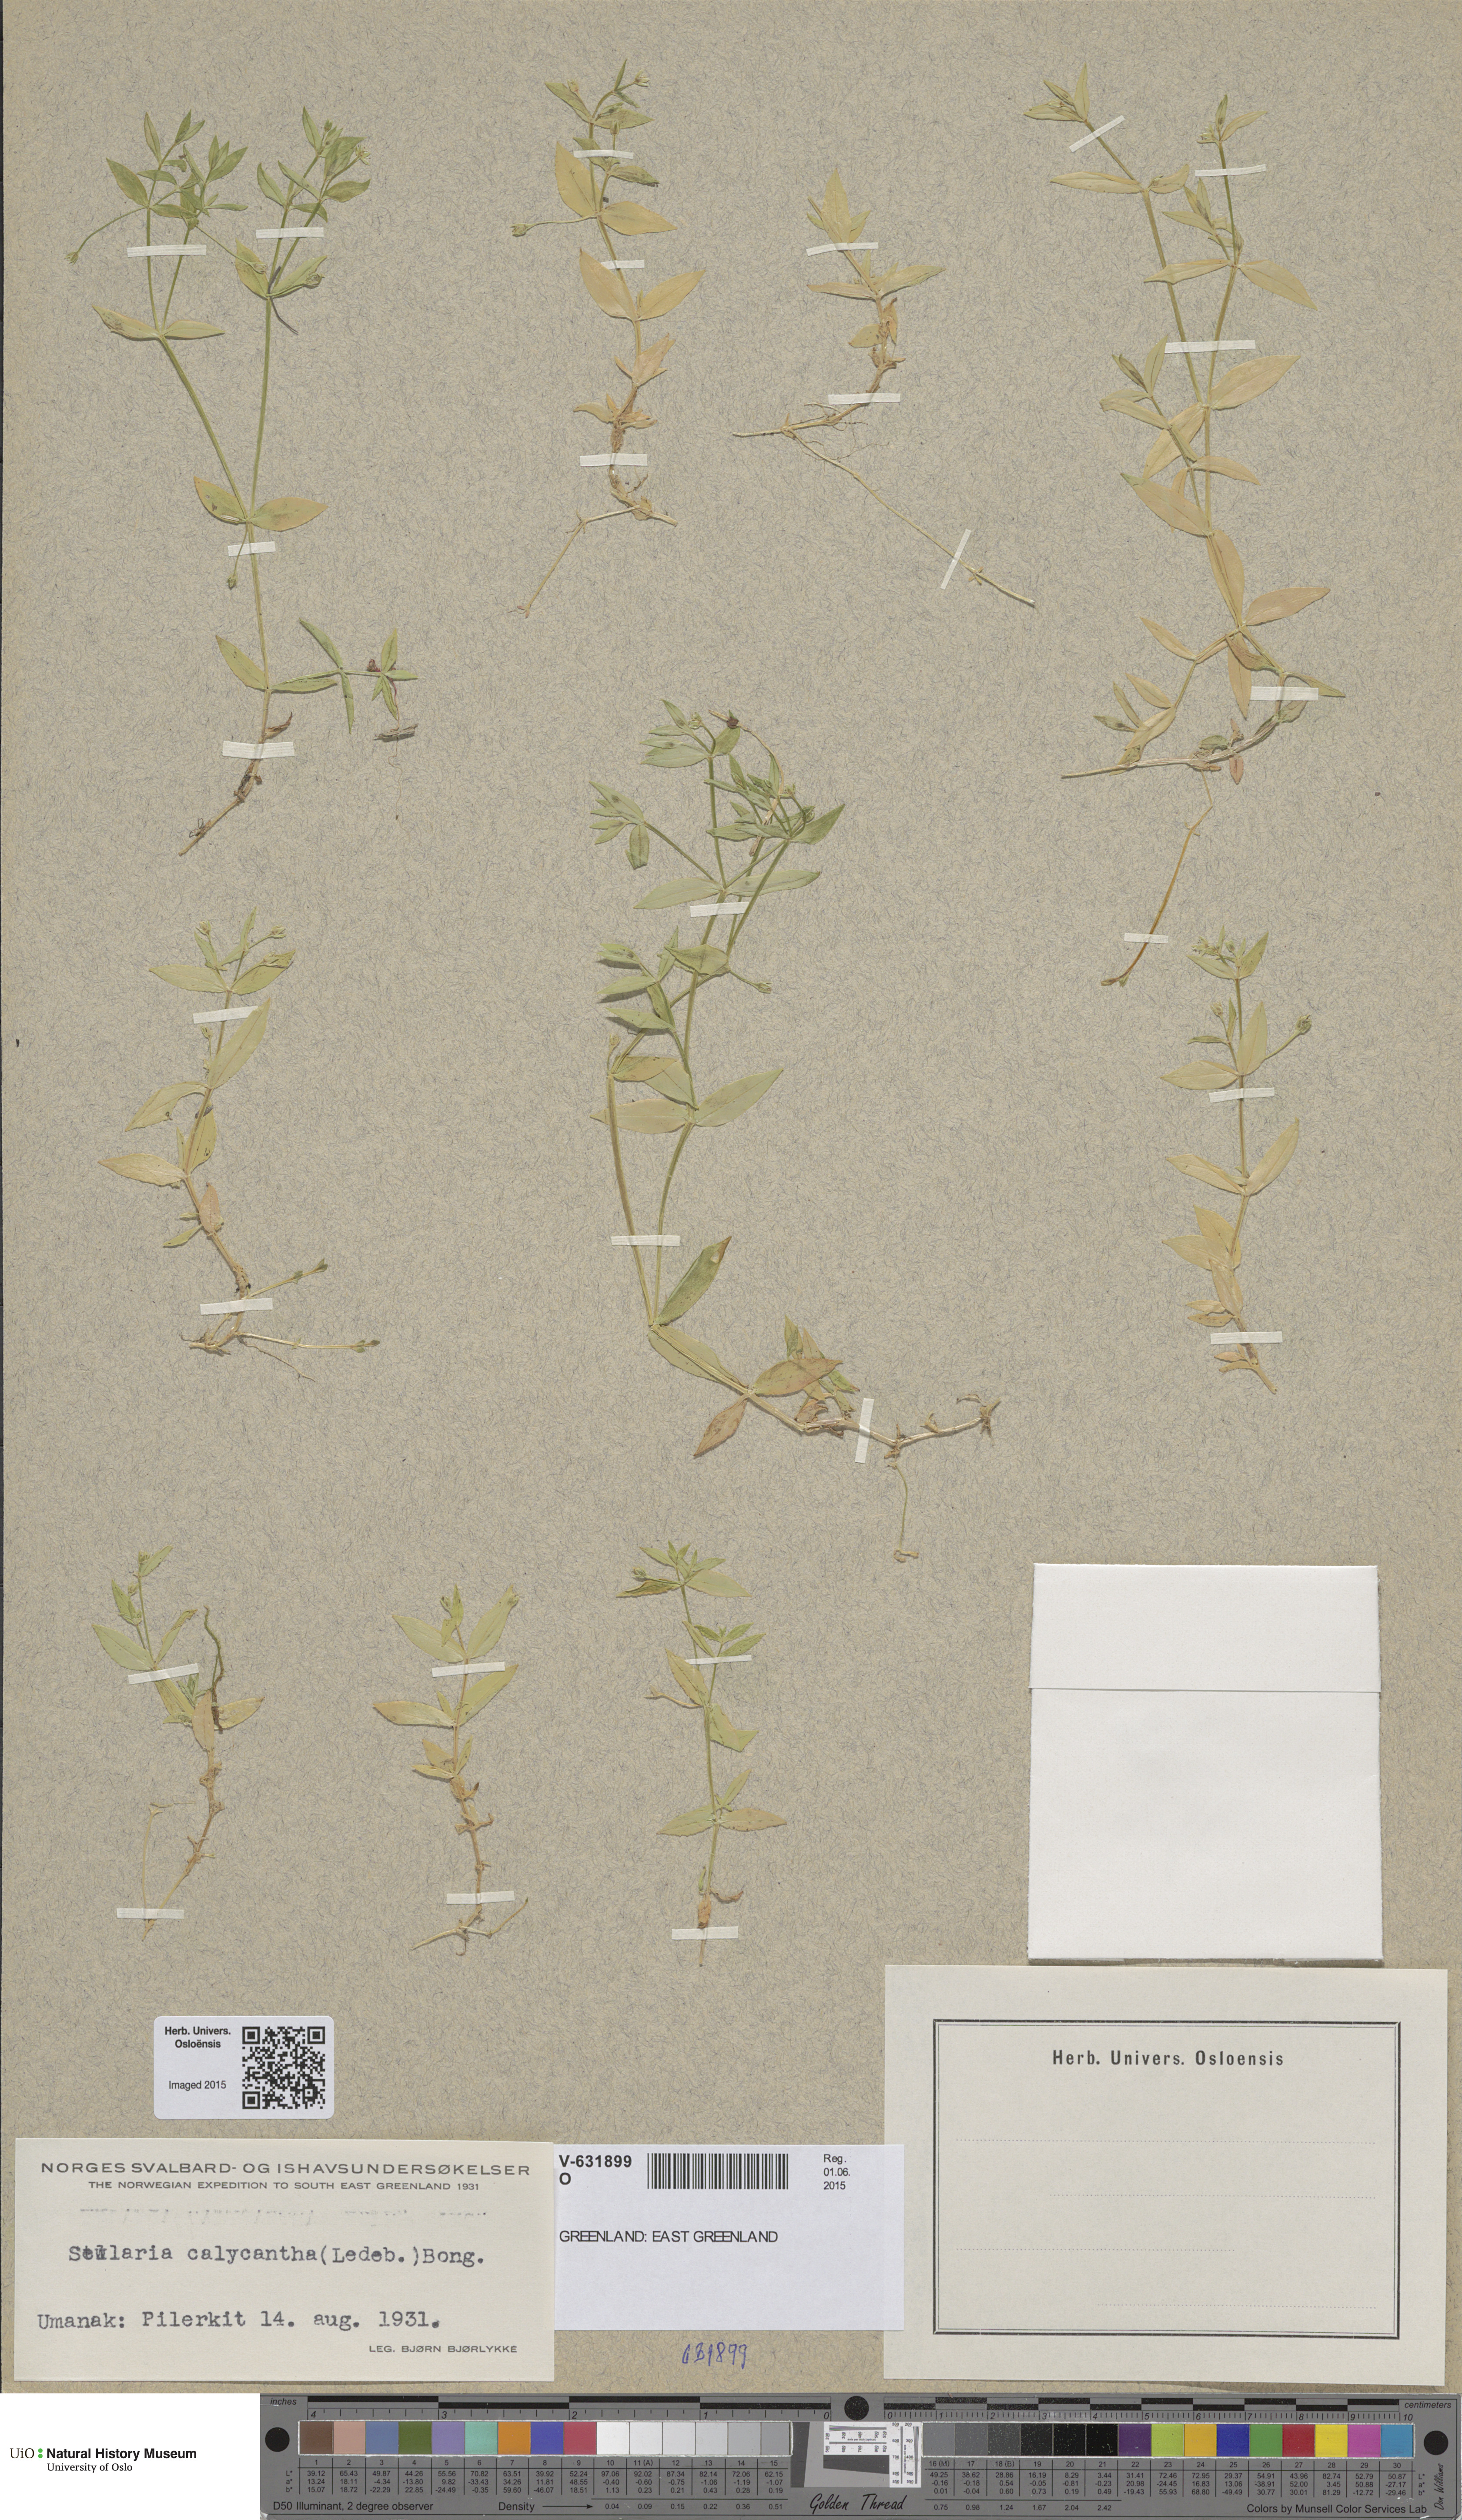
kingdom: Plantae
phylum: Tracheophyta
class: Magnoliopsida
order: Caryophyllales
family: Caryophyllaceae
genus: Stellaria
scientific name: Stellaria borealis
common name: Boreal starwort
